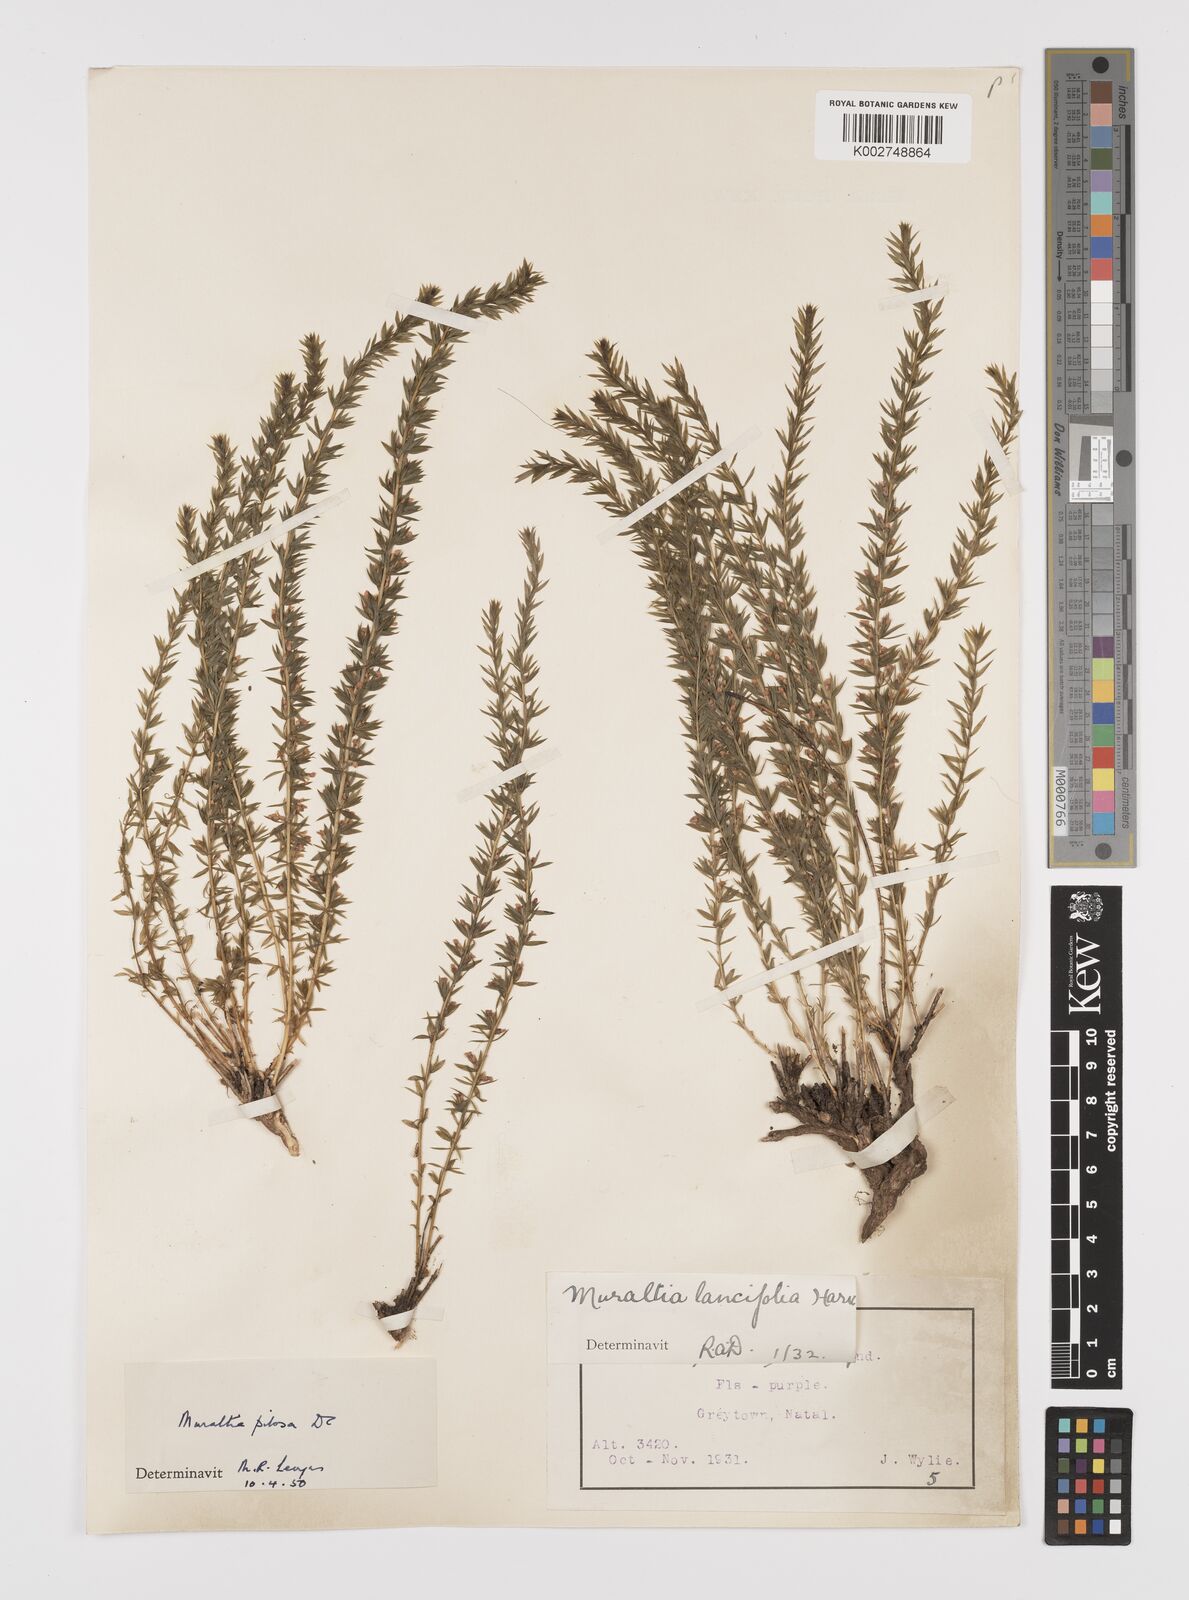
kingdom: Plantae
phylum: Tracheophyta
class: Magnoliopsida
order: Fabales
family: Polygalaceae
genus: Muraltia
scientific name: Muraltia lancifolia
